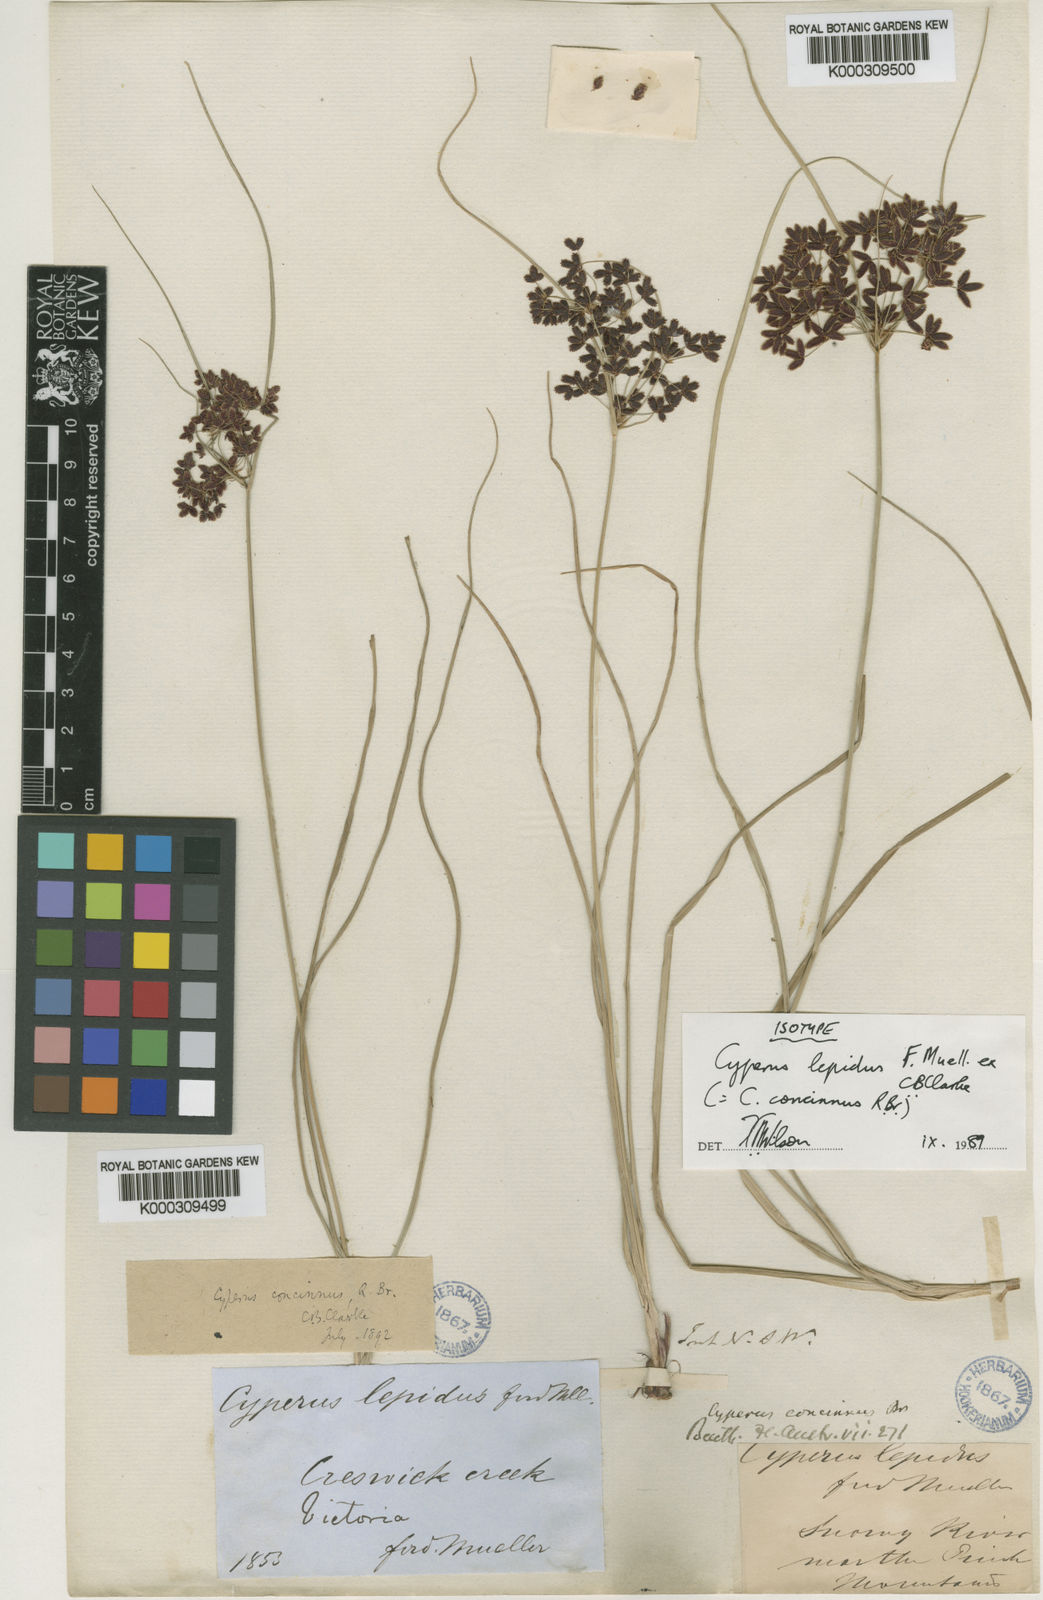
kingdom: Plantae
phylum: Tracheophyta
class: Liliopsida
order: Poales
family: Cyperaceae
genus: Cyperus
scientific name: Cyperus concinnus
